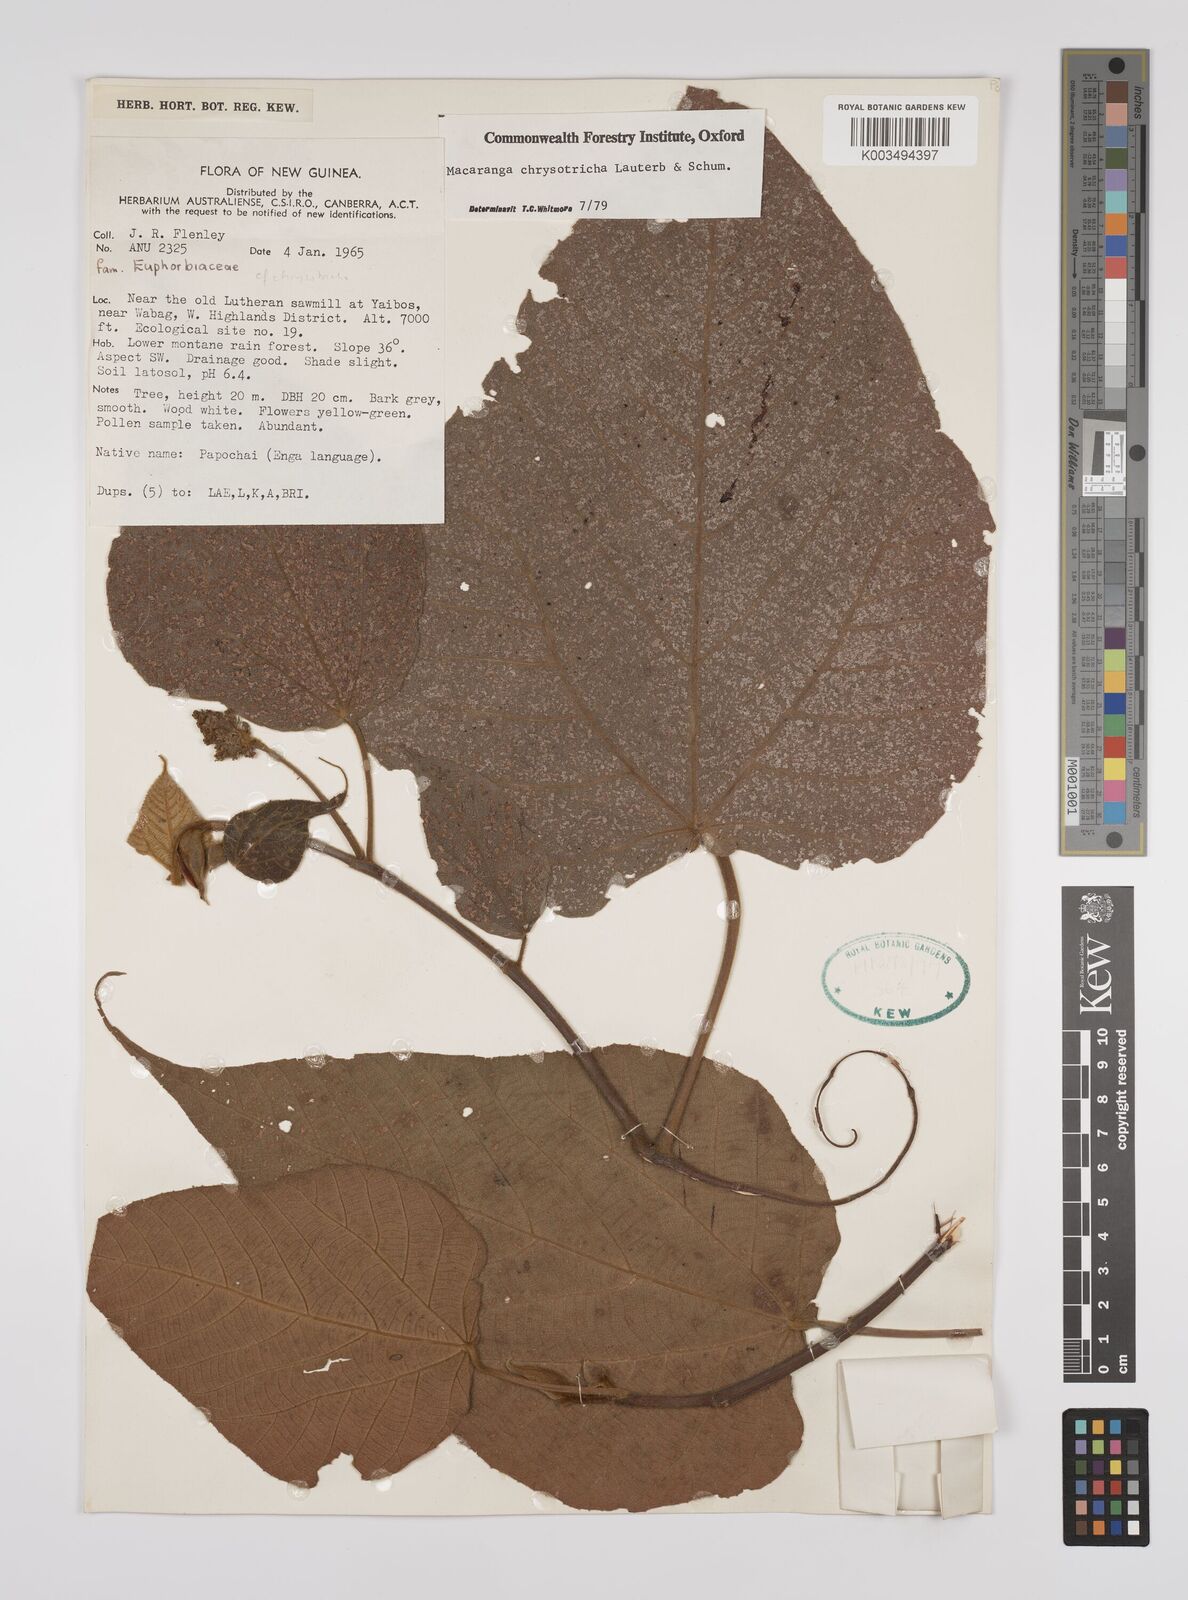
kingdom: Plantae
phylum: Tracheophyta
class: Magnoliopsida
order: Malpighiales
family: Euphorbiaceae
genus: Macaranga
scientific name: Macaranga chrysotricha
